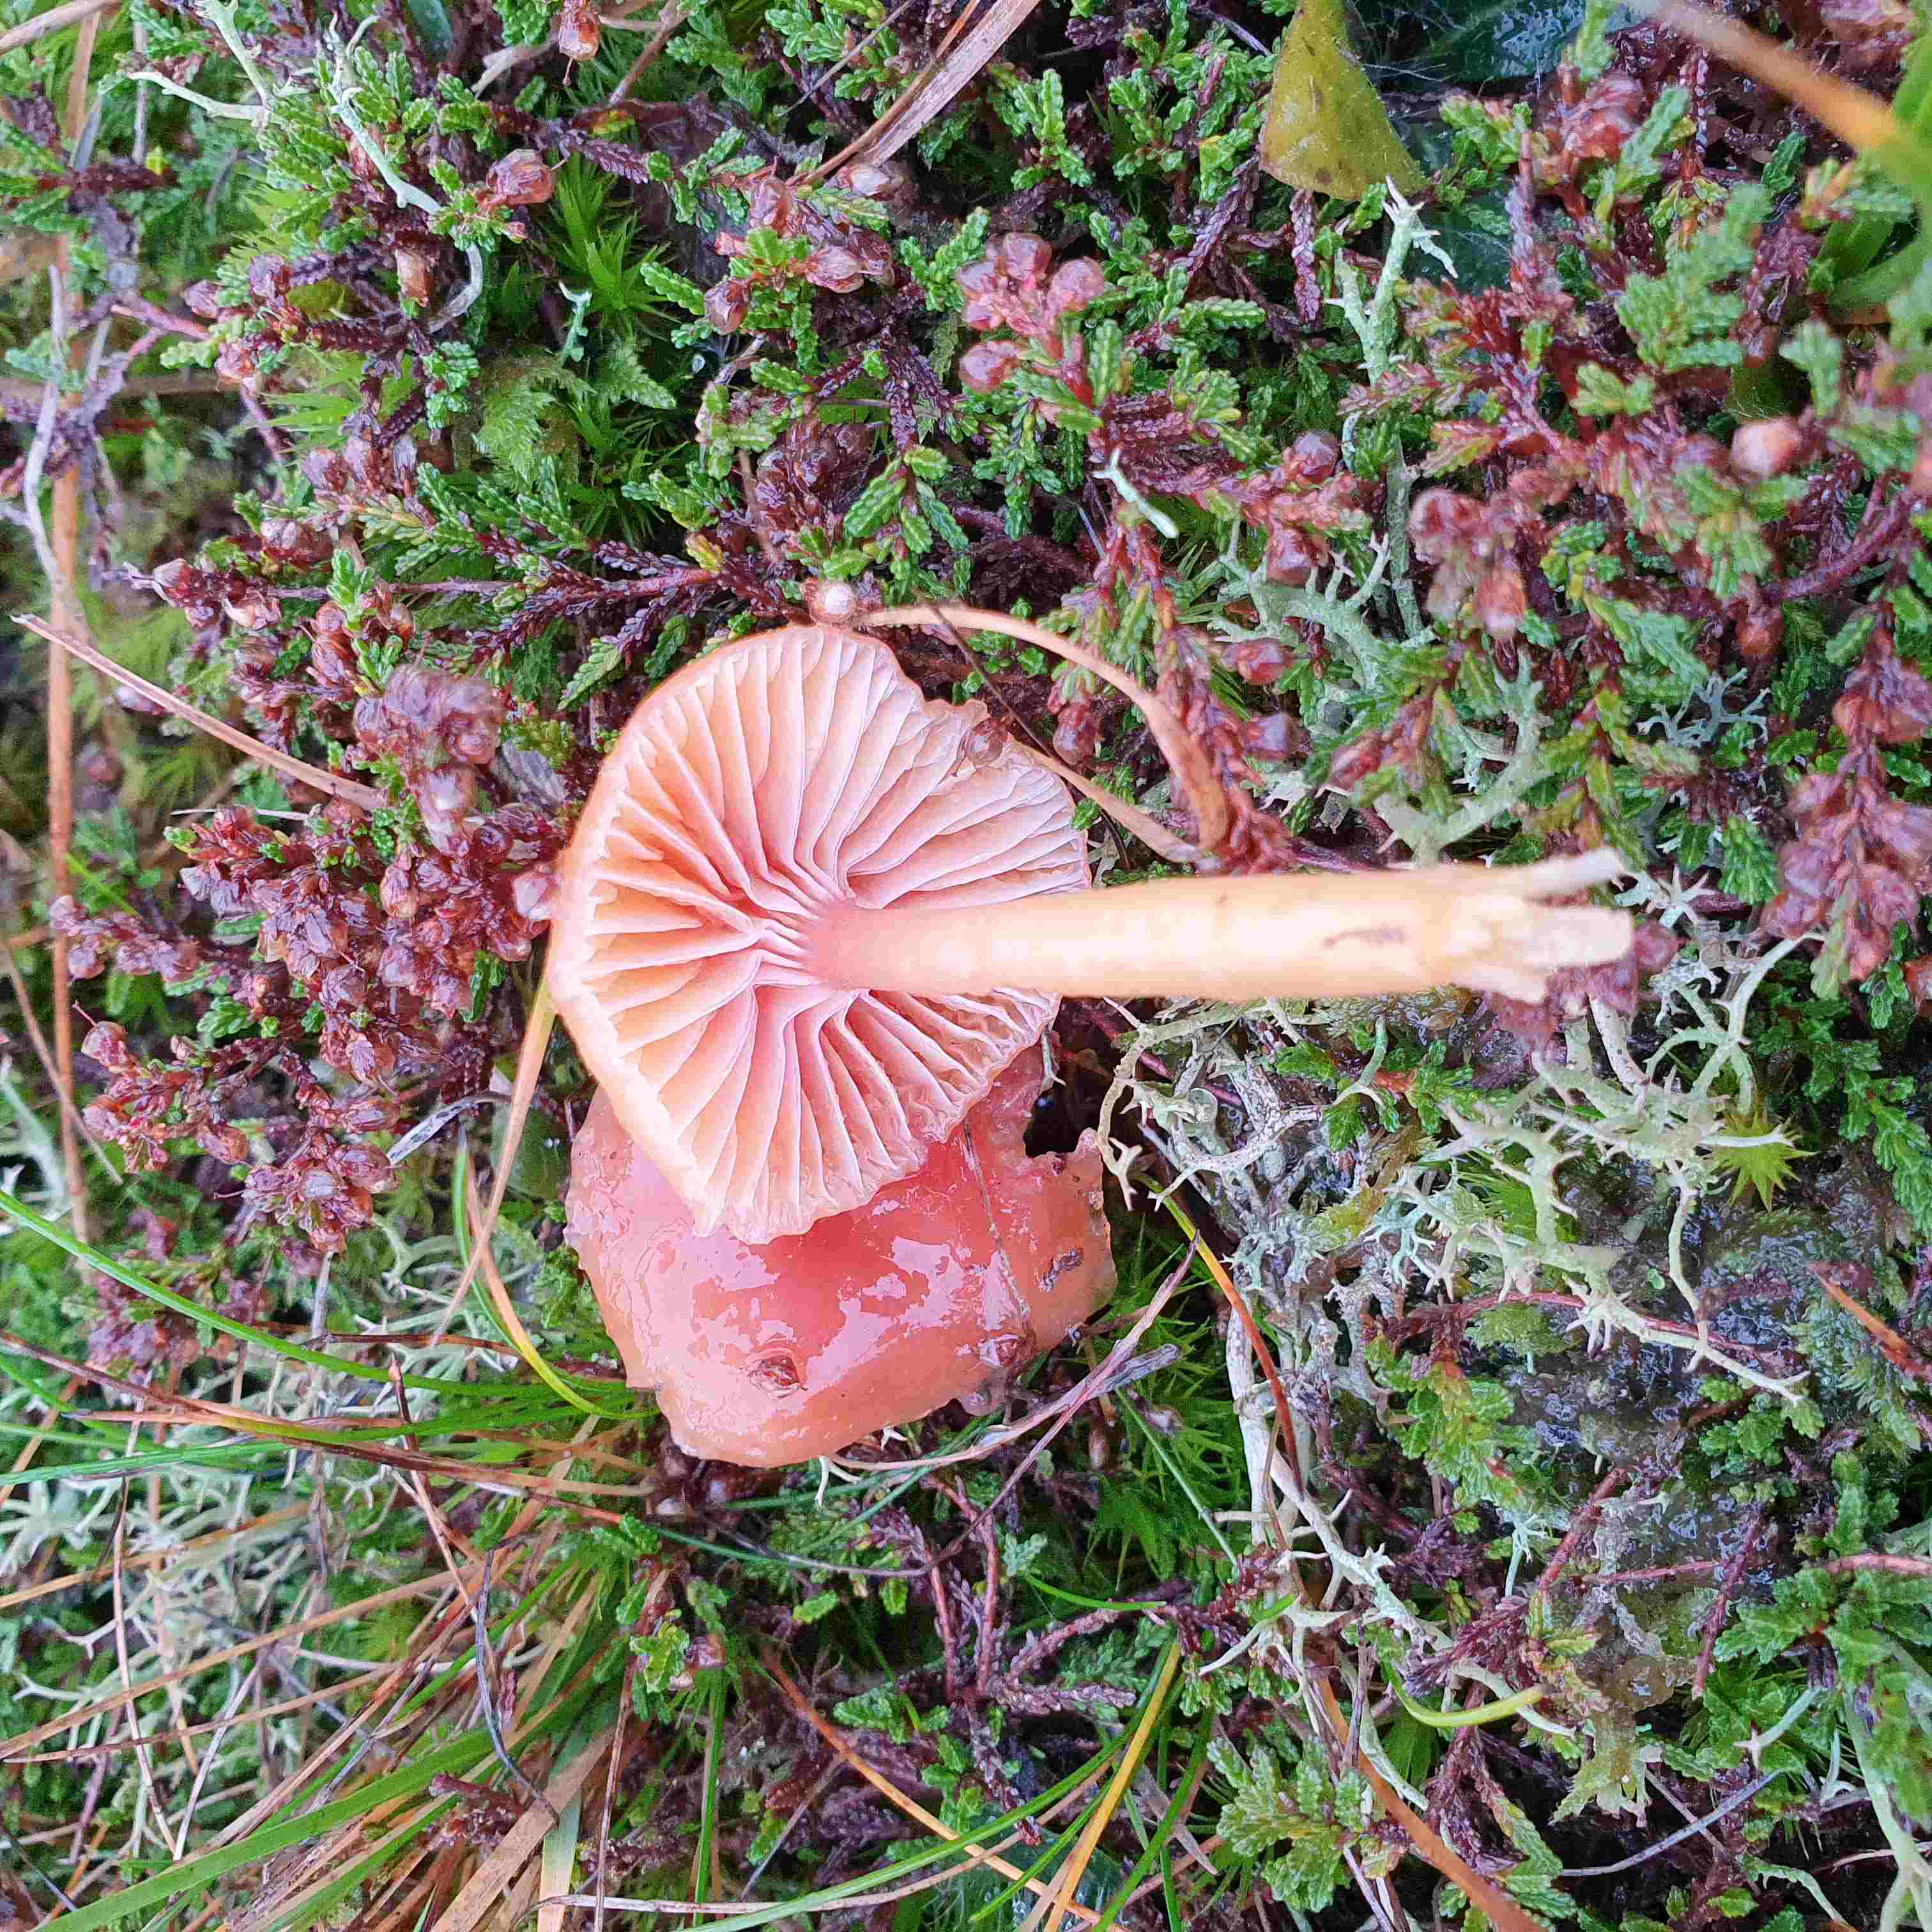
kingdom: Fungi
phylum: Basidiomycota
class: Agaricomycetes
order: Agaricales
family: Hygrophoraceae
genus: Gliophorus
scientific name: Gliophorus laetus
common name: brusk-vokshat
